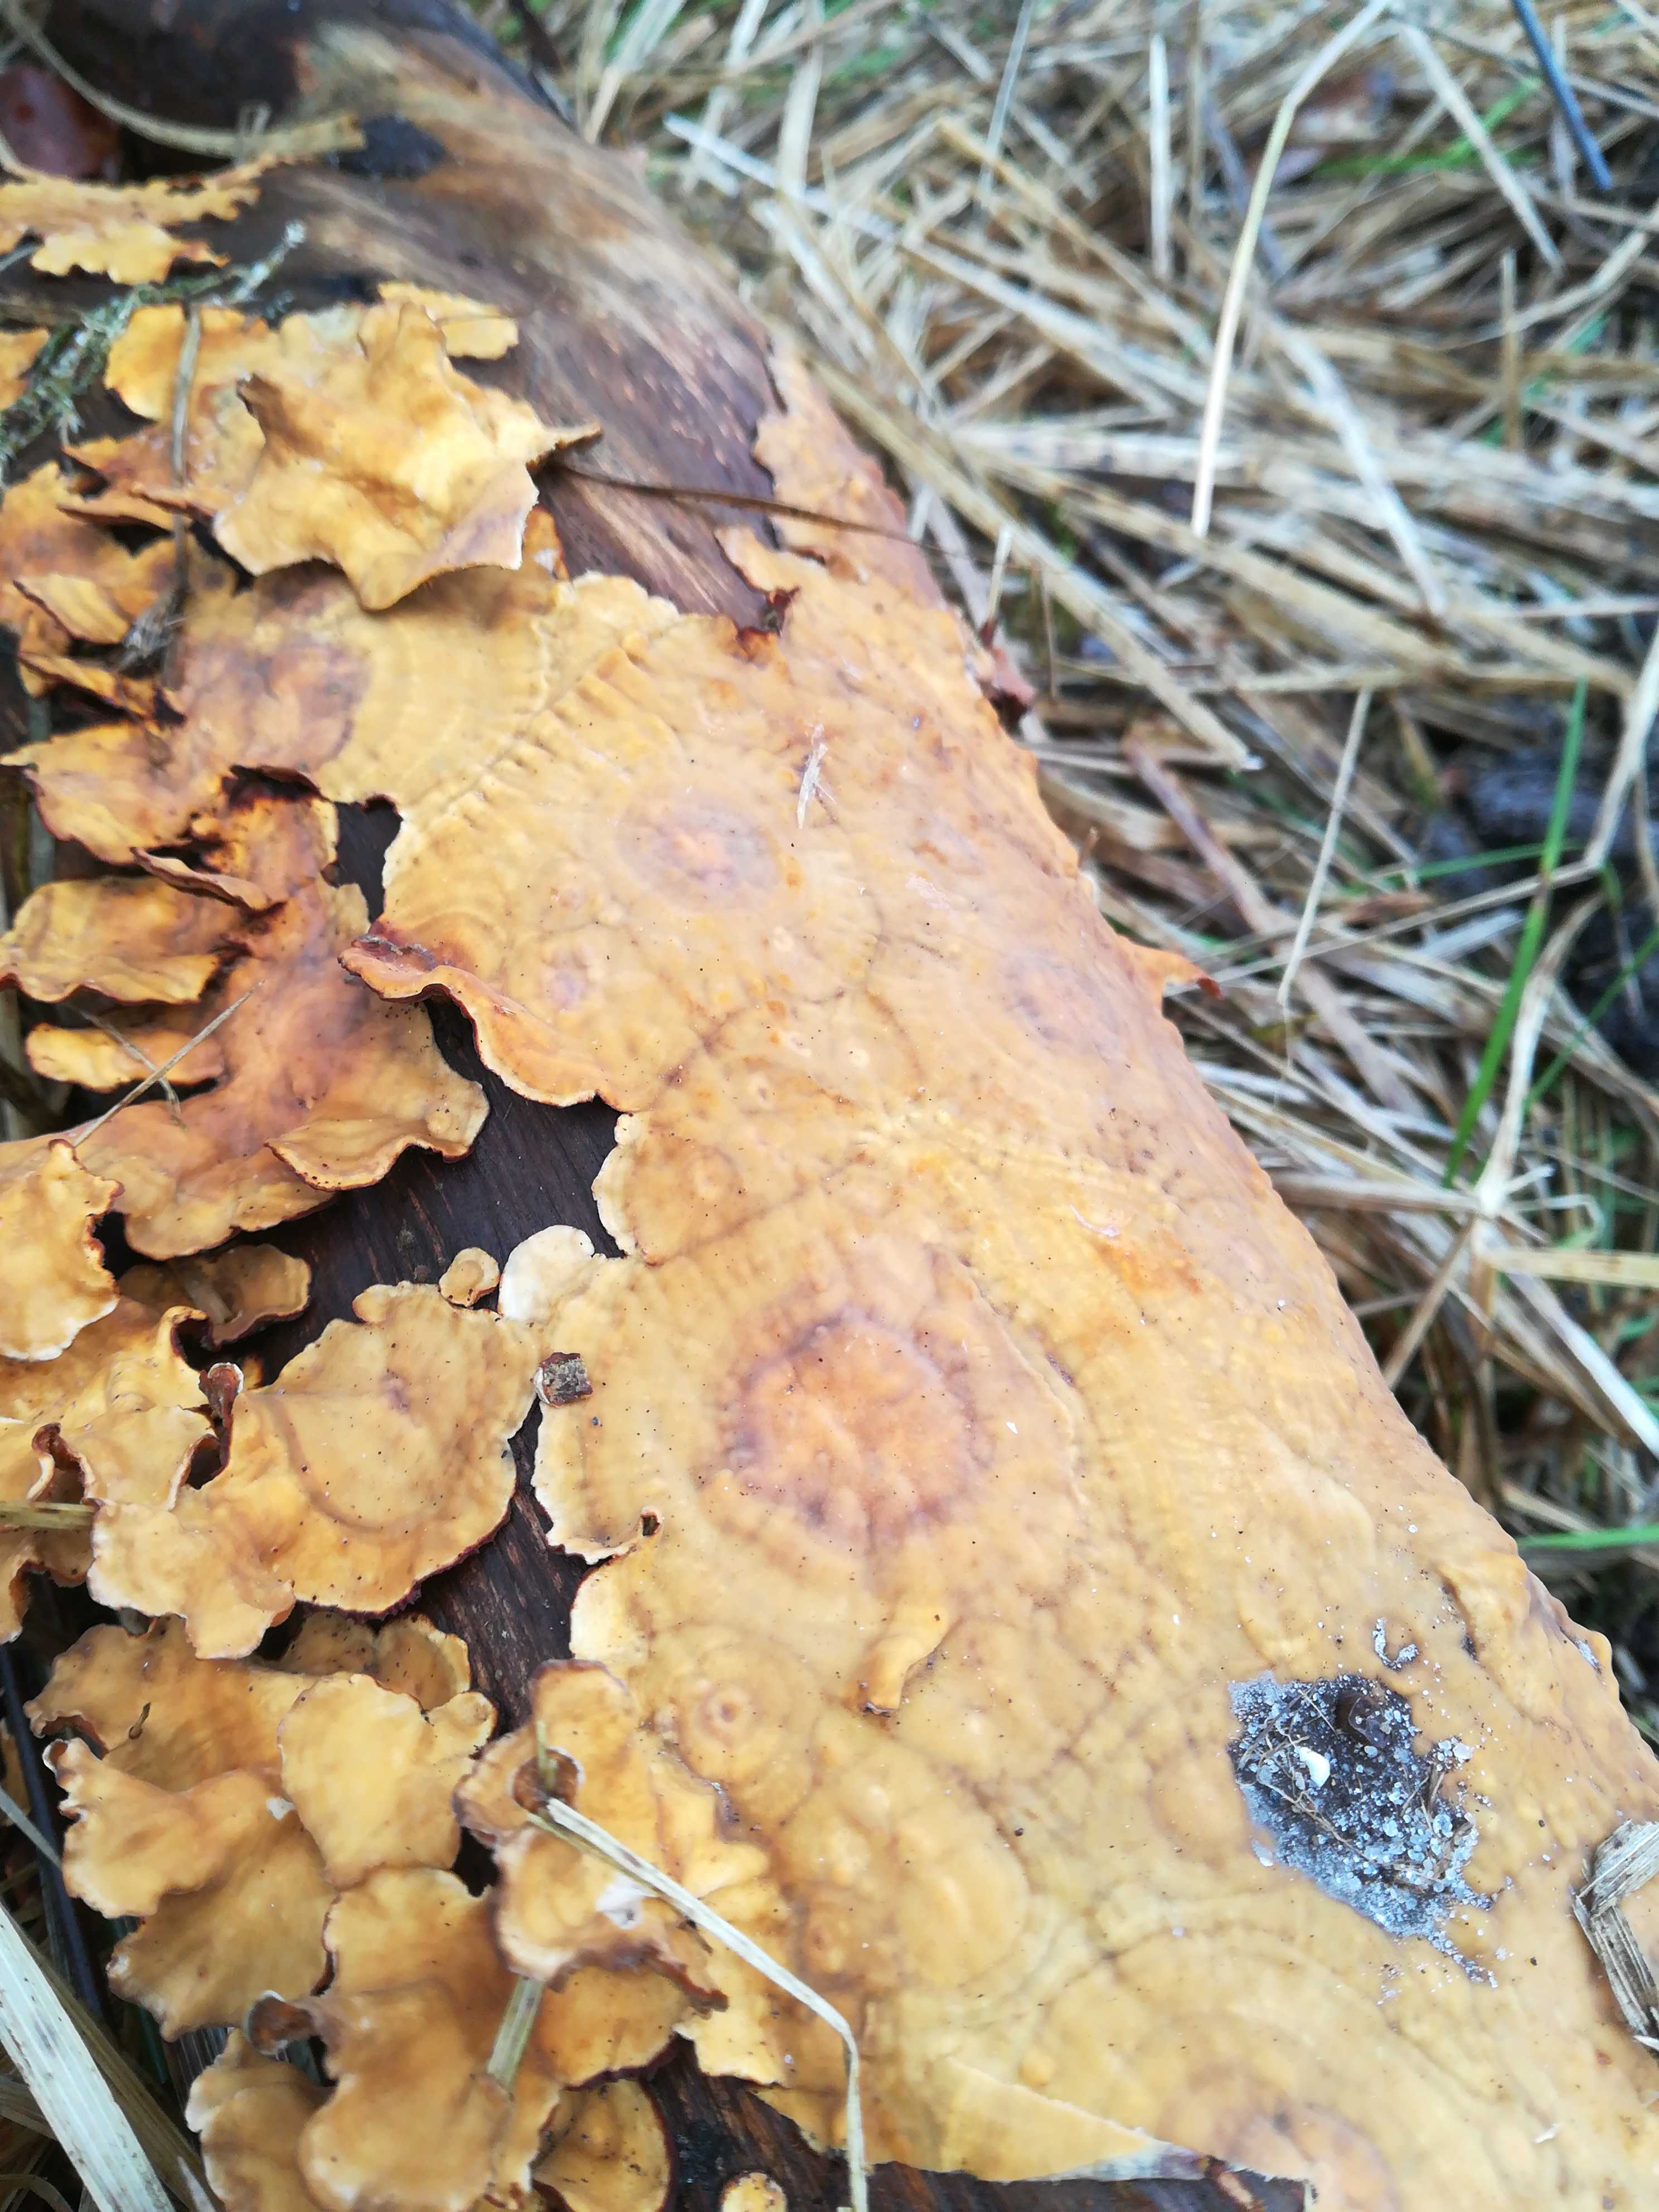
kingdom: Fungi
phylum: Basidiomycota
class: Agaricomycetes
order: Russulales
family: Stereaceae
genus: Stereum
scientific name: Stereum hirsutum
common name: håret lædersvamp
